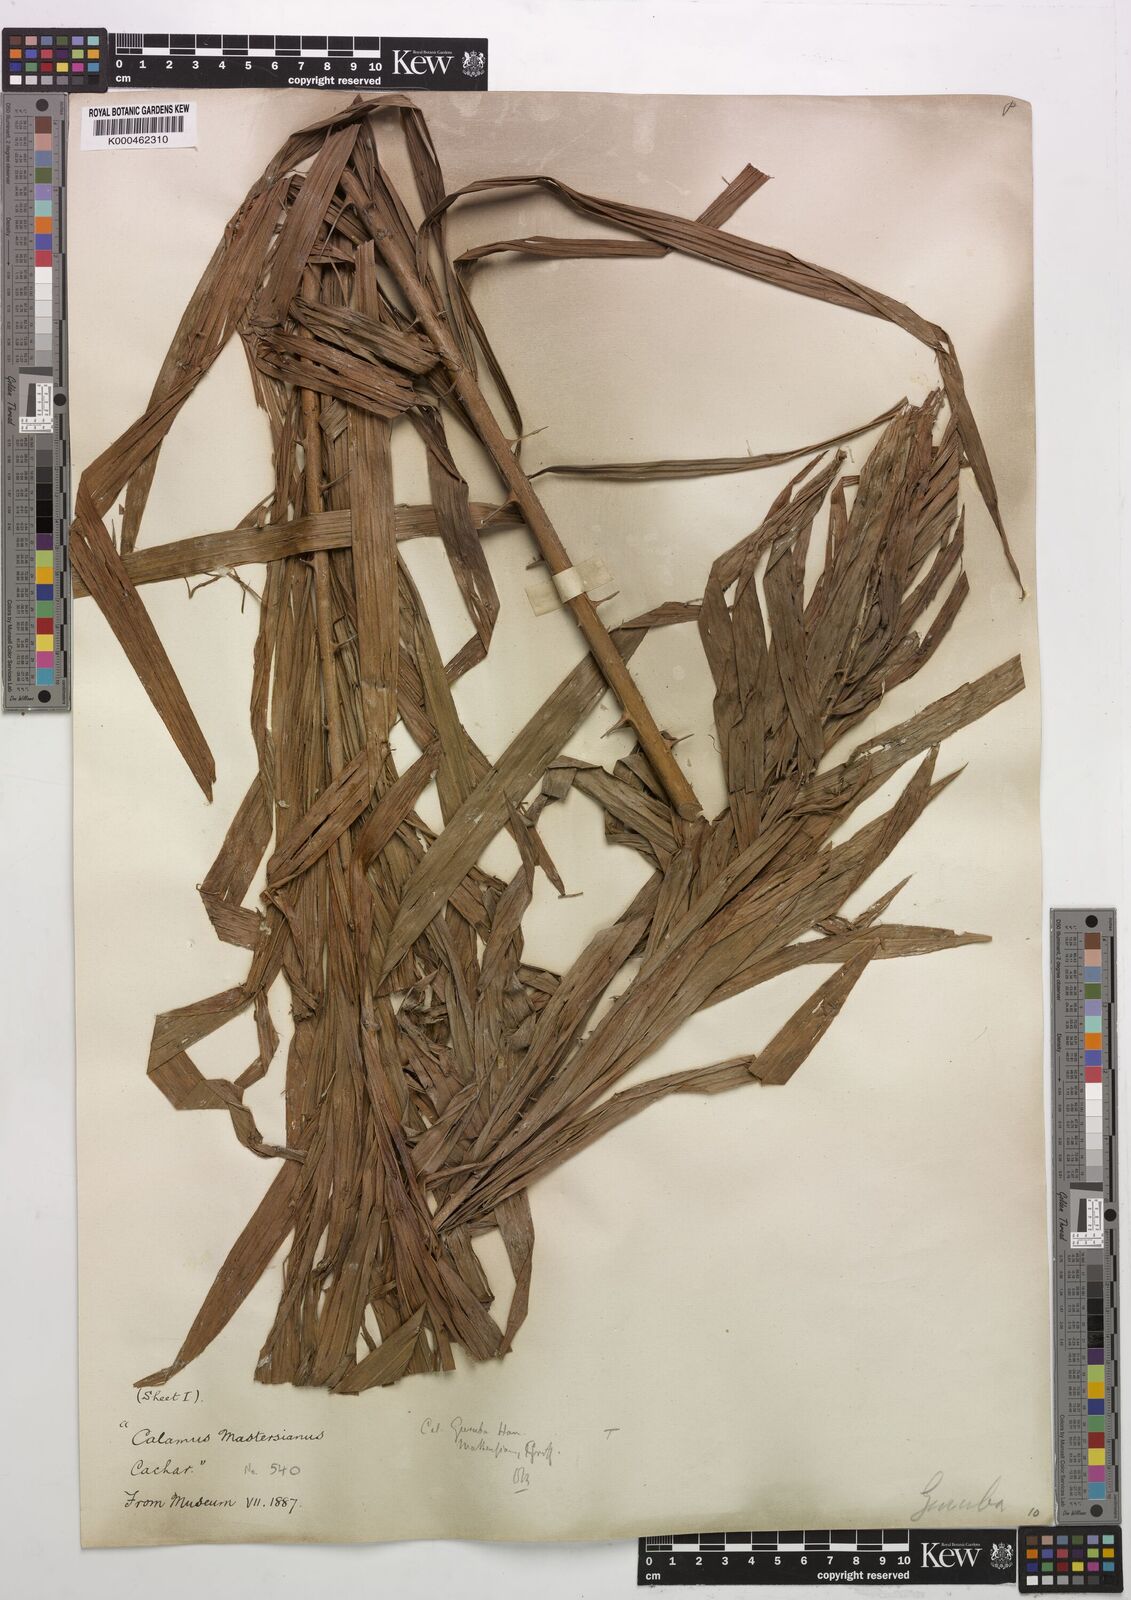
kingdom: Plantae
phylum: Tracheophyta
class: Liliopsida
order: Arecales
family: Arecaceae
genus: Calamus
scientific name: Calamus
